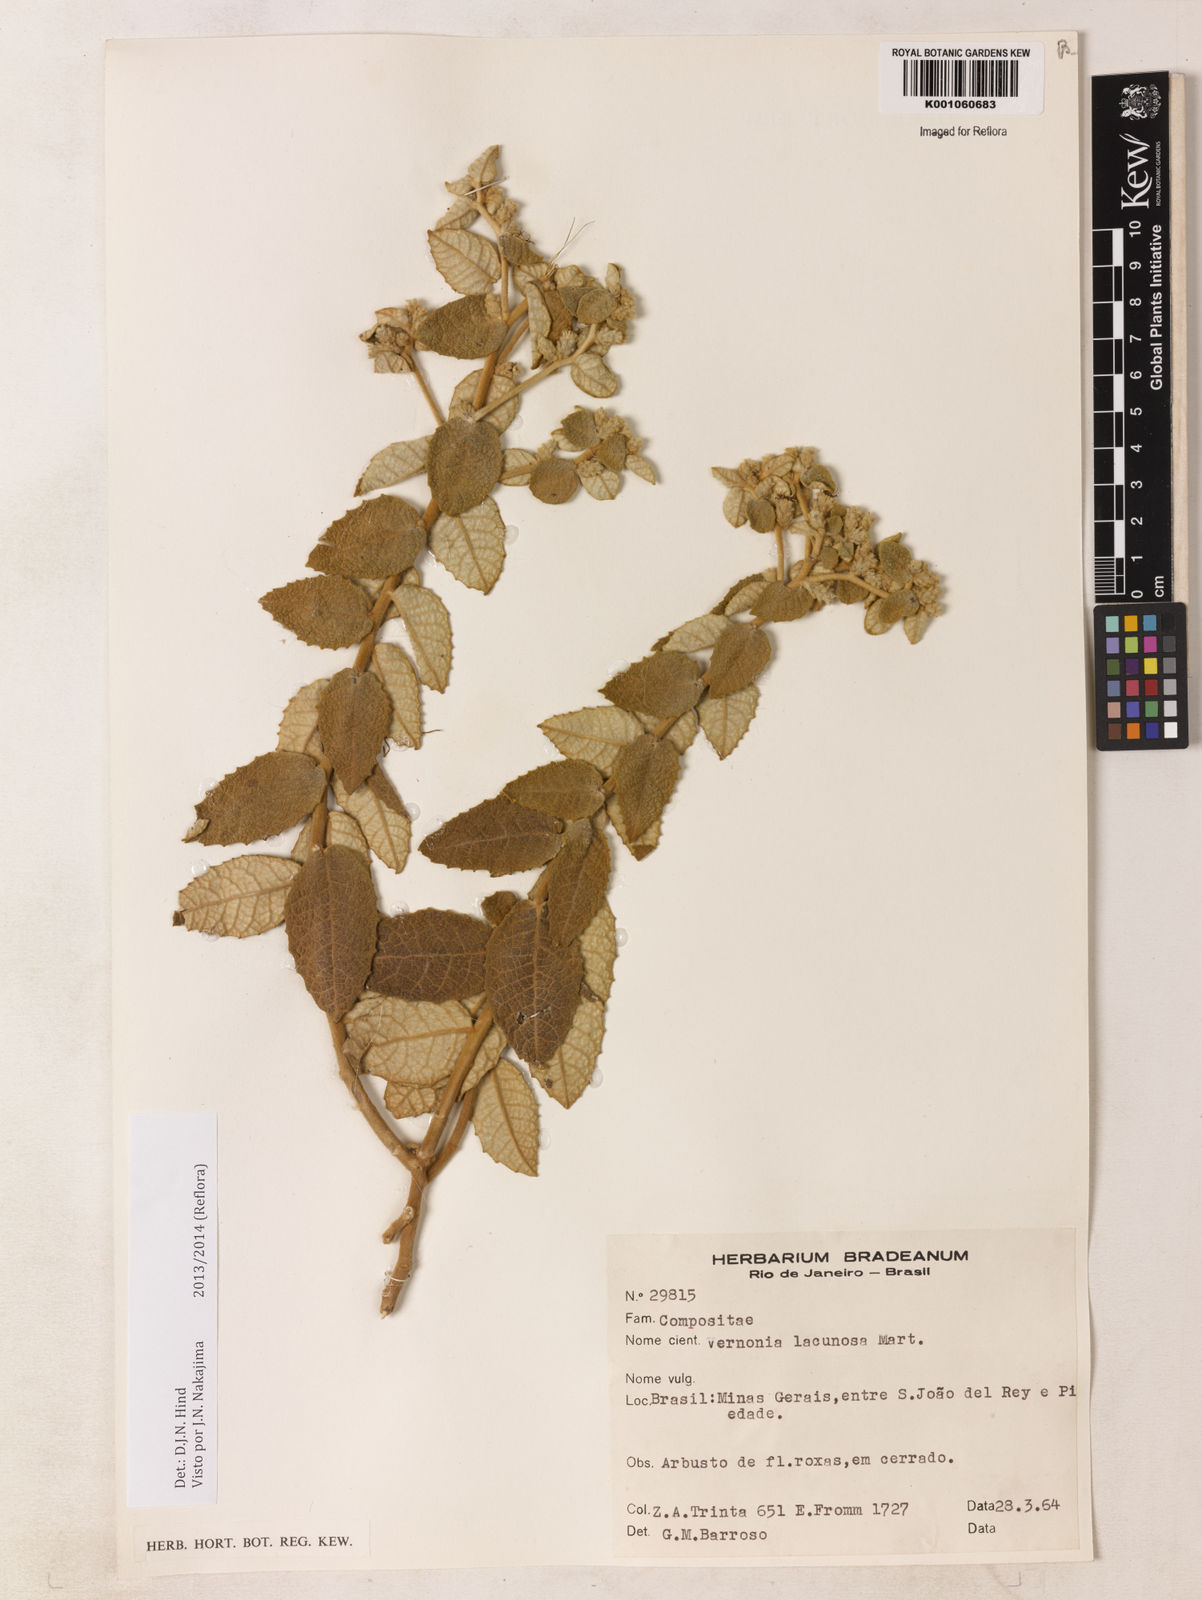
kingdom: Plantae
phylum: Tracheophyta
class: Magnoliopsida
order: Asterales
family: Asteraceae
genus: Lessingianthus
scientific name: Lessingianthus lacunosus
